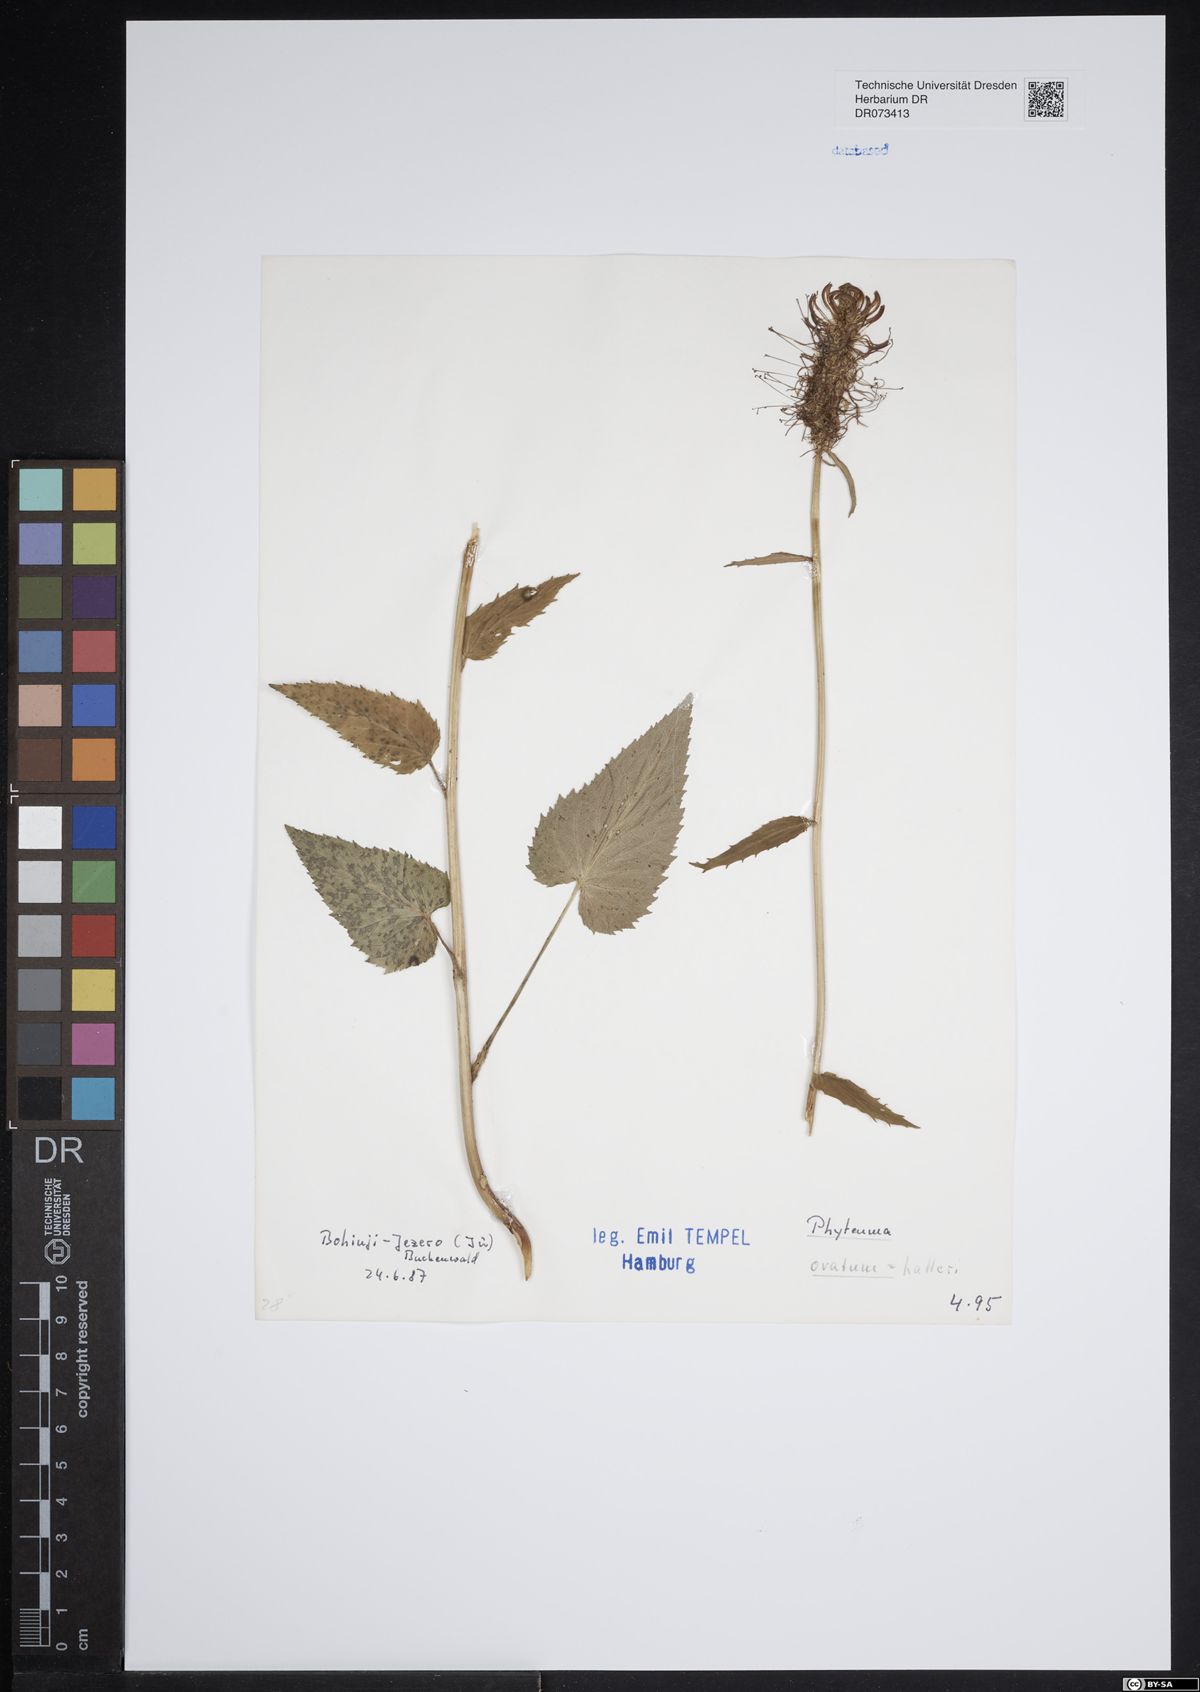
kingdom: Plantae
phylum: Tracheophyta
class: Magnoliopsida
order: Asterales
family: Campanulaceae
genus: Phyteuma
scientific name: Phyteuma ovatum
